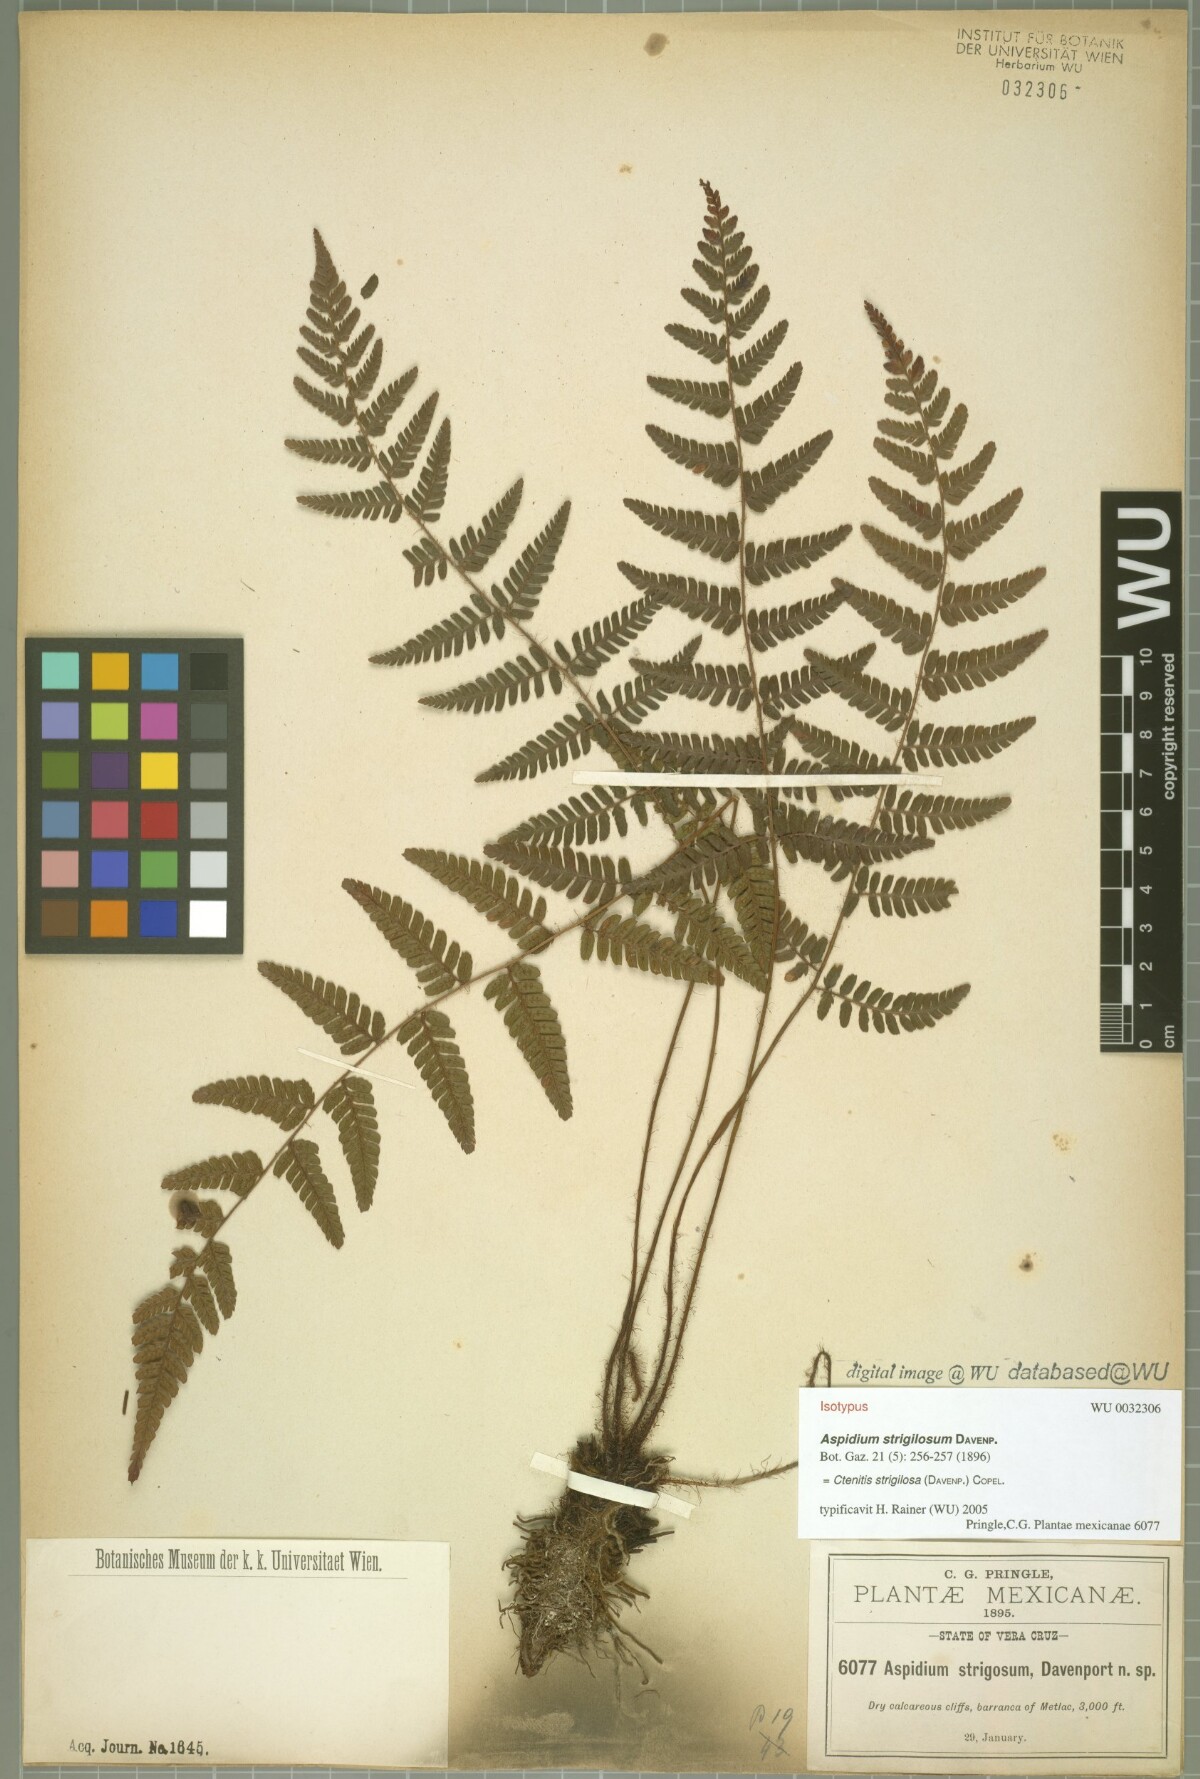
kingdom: Plantae
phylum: Tracheophyta
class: Polypodiopsida
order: Polypodiales
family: Dryopteridaceae
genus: Ctenitis
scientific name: Ctenitis strigilosa
